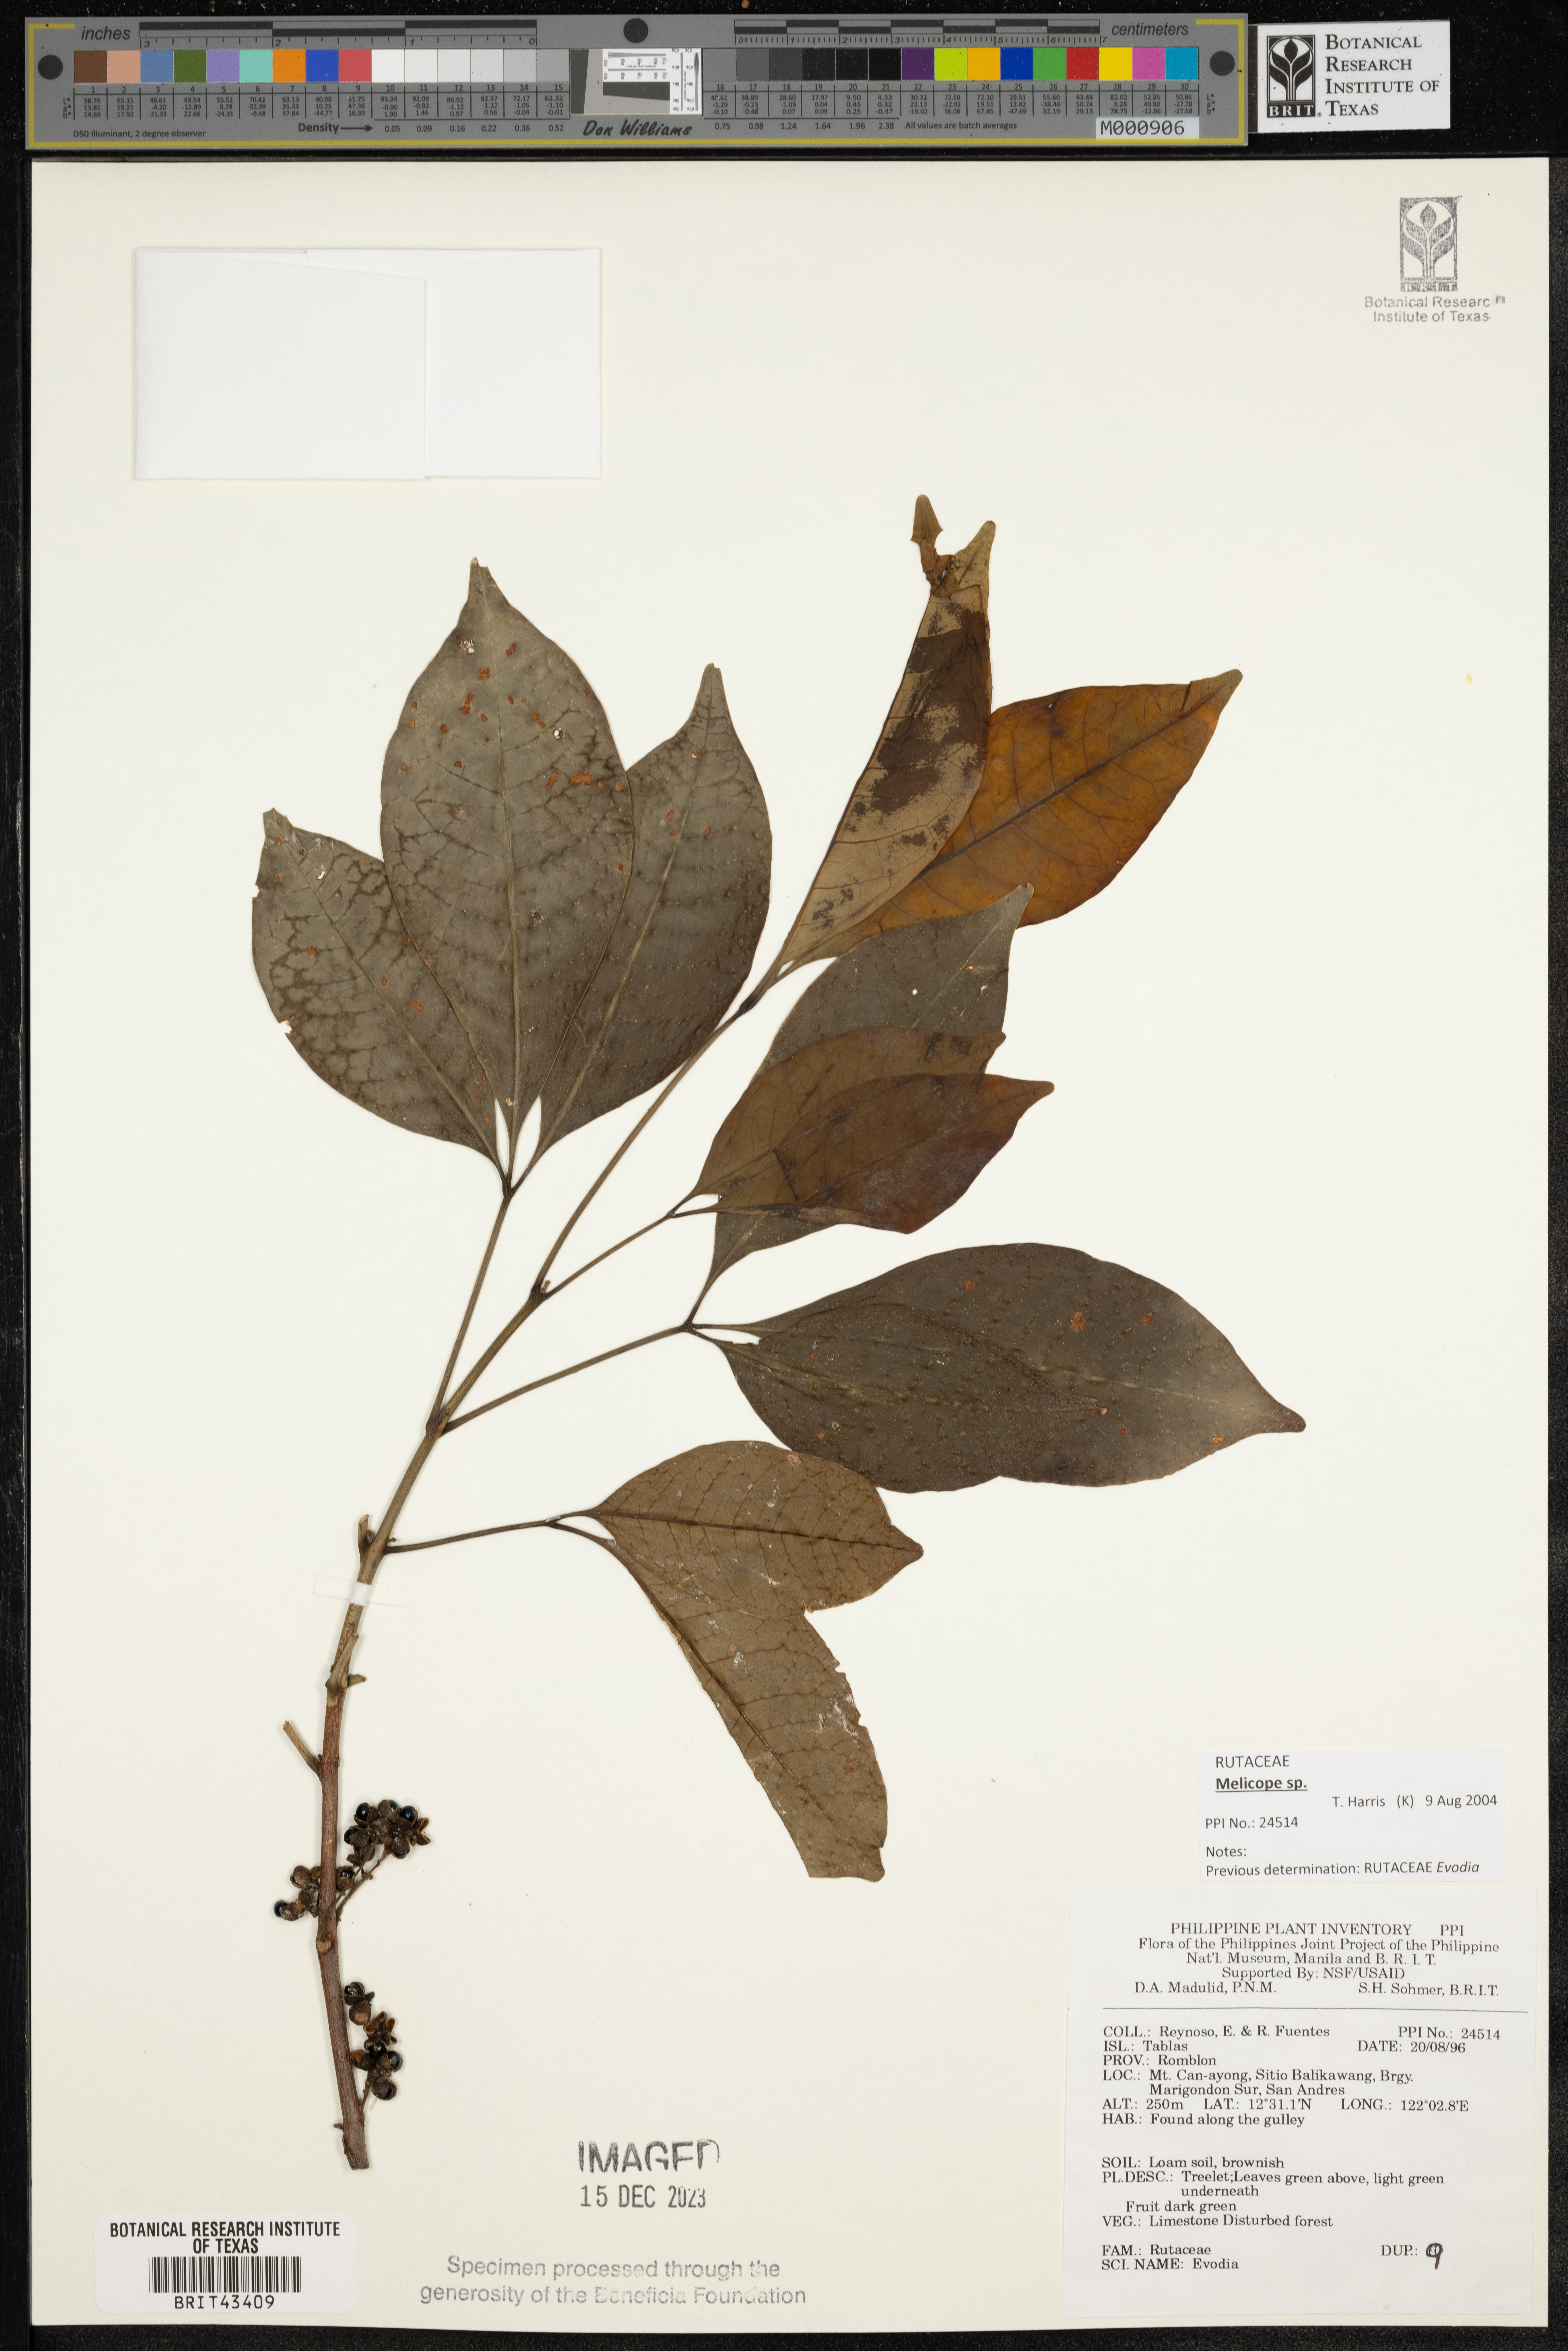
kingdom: Plantae
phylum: Tracheophyta
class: Magnoliopsida
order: Sapindales
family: Rutaceae
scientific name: Rutaceae
